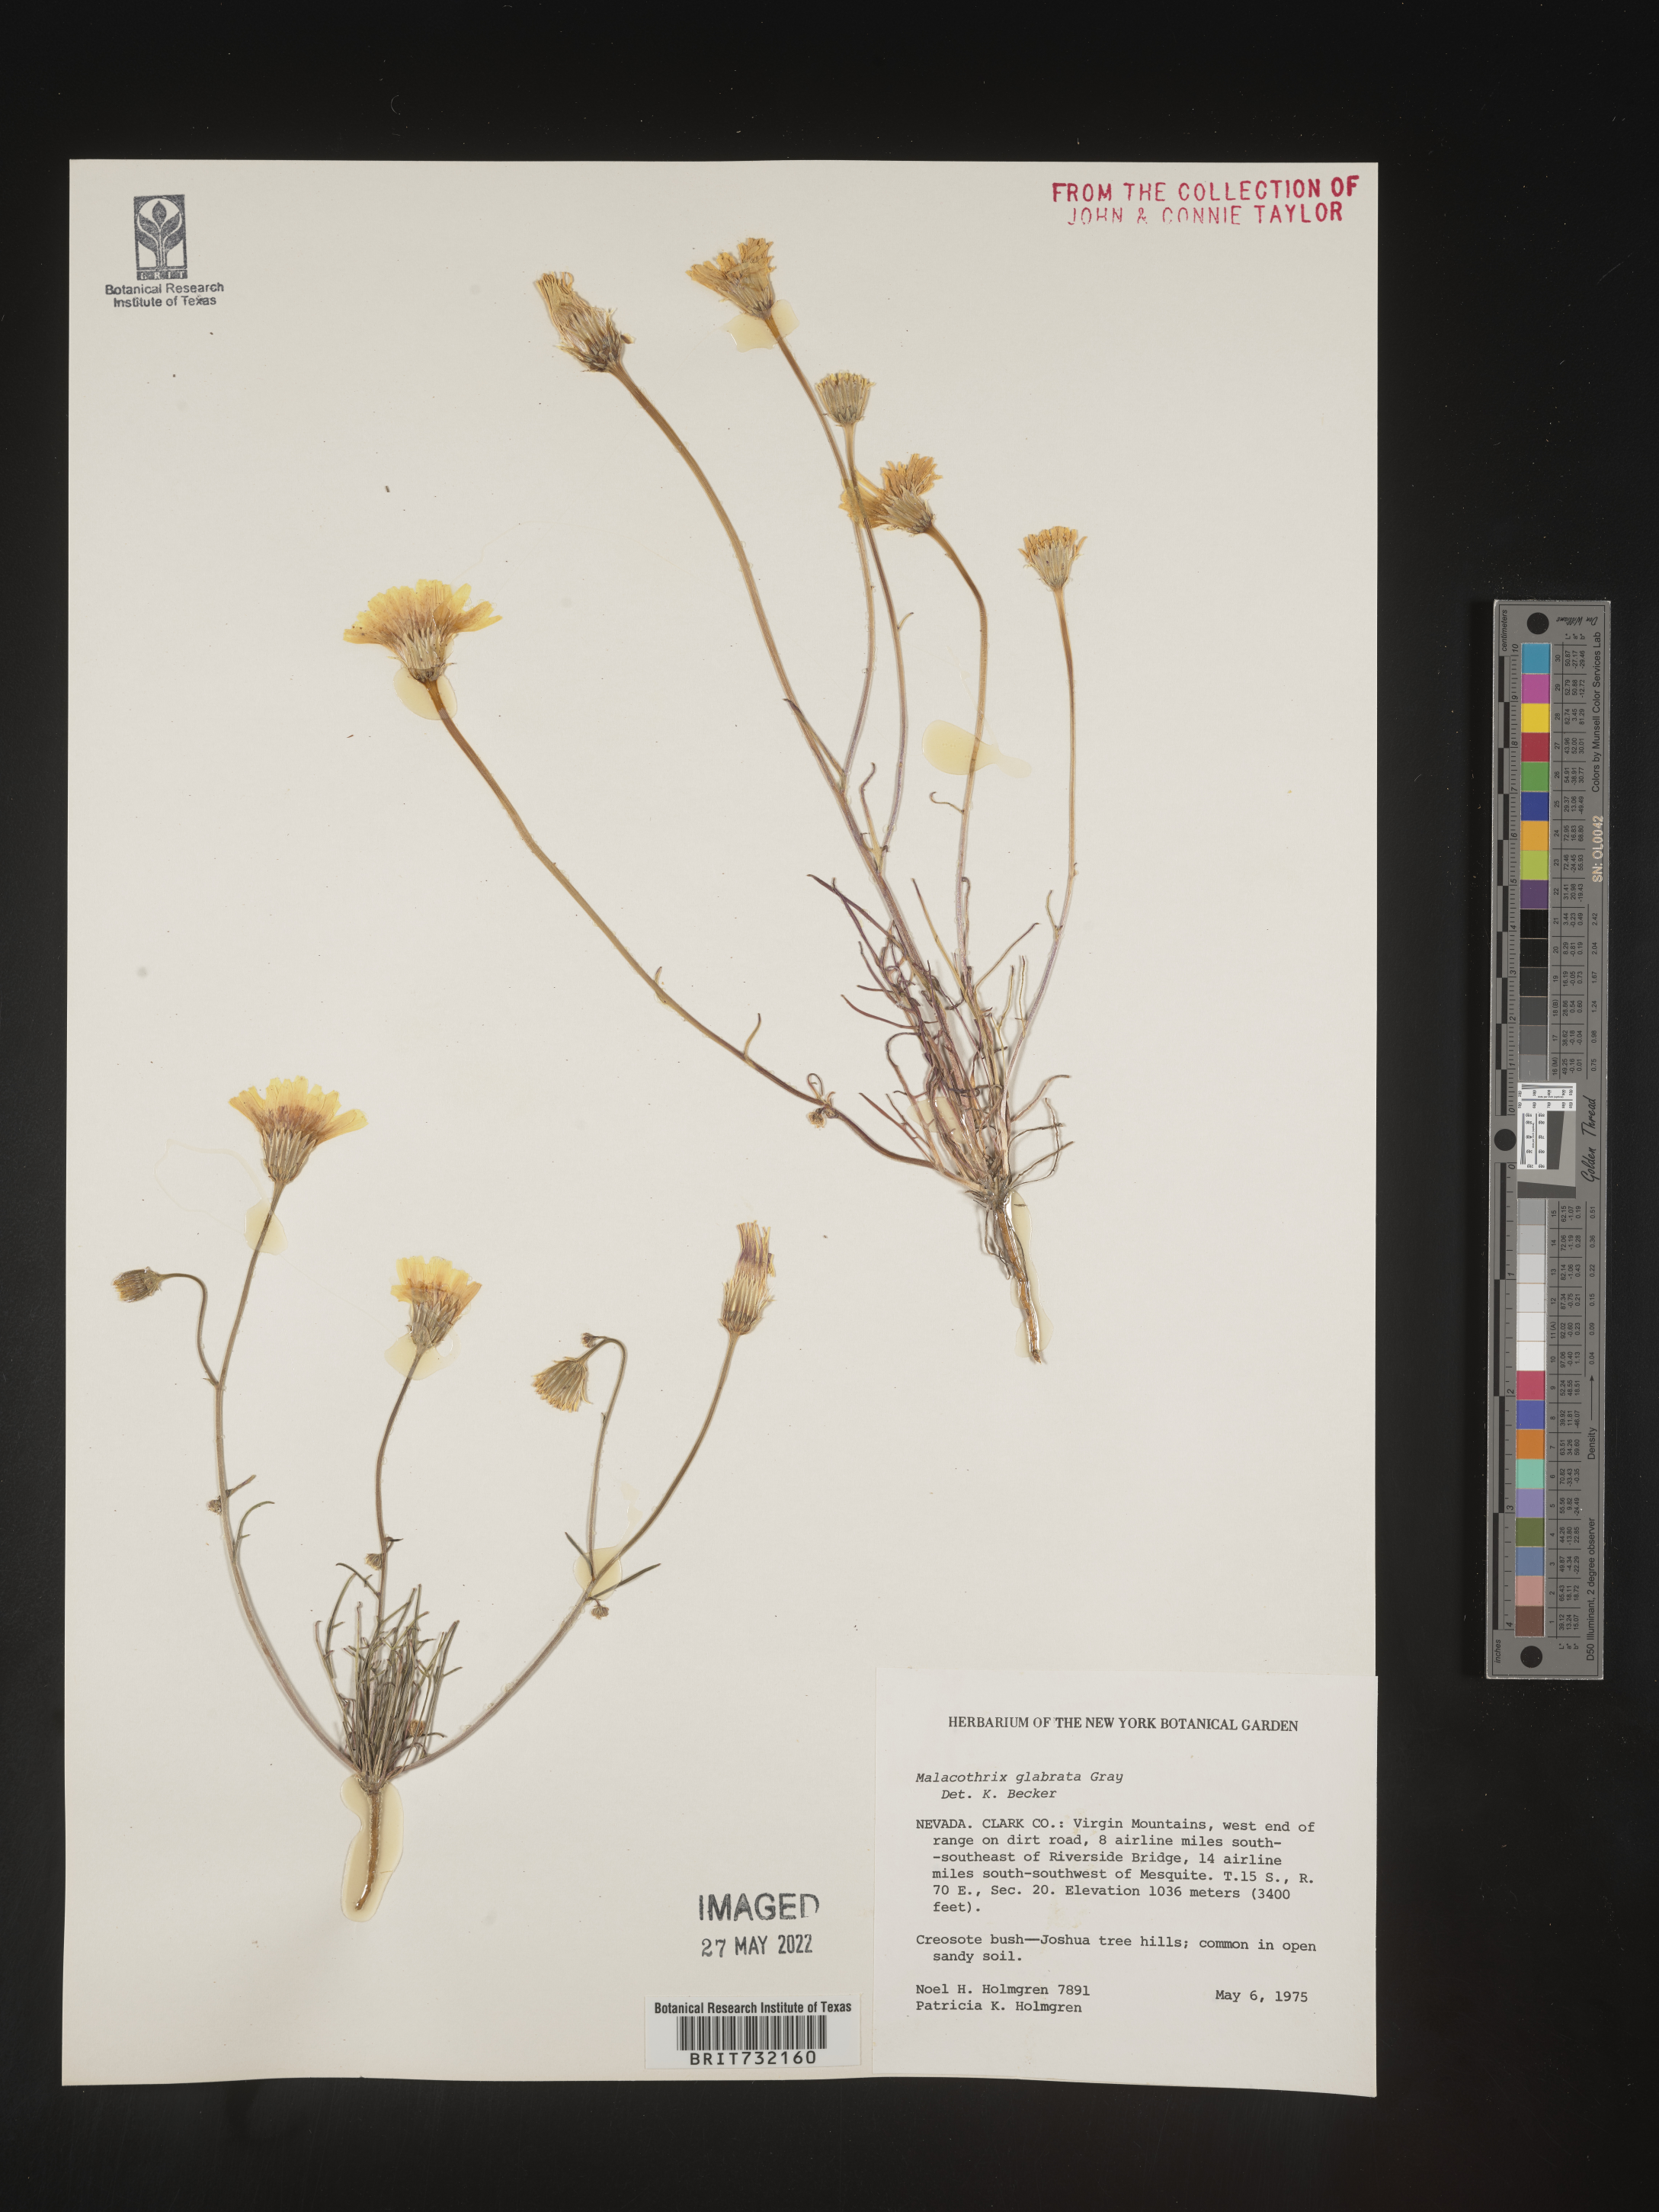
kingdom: Plantae
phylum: Tracheophyta
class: Magnoliopsida
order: Asterales
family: Asteraceae
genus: Malacothrix
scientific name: Malacothrix glabrata
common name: Smooth desert-dandelion
